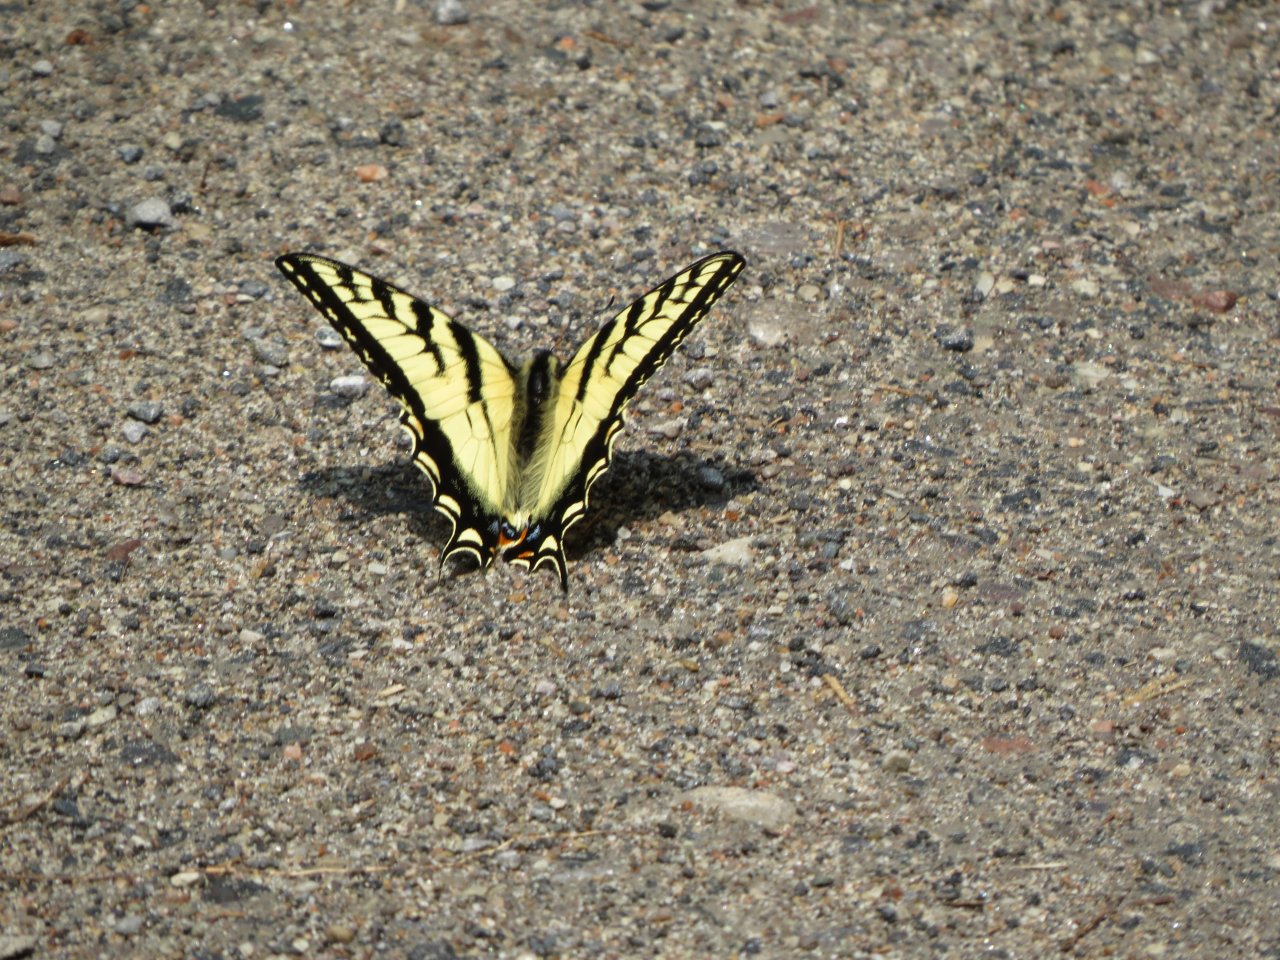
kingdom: Animalia
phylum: Arthropoda
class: Insecta
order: Lepidoptera
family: Papilionidae
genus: Pterourus
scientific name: Pterourus canadensis
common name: Canadian Tiger Swallowtail
